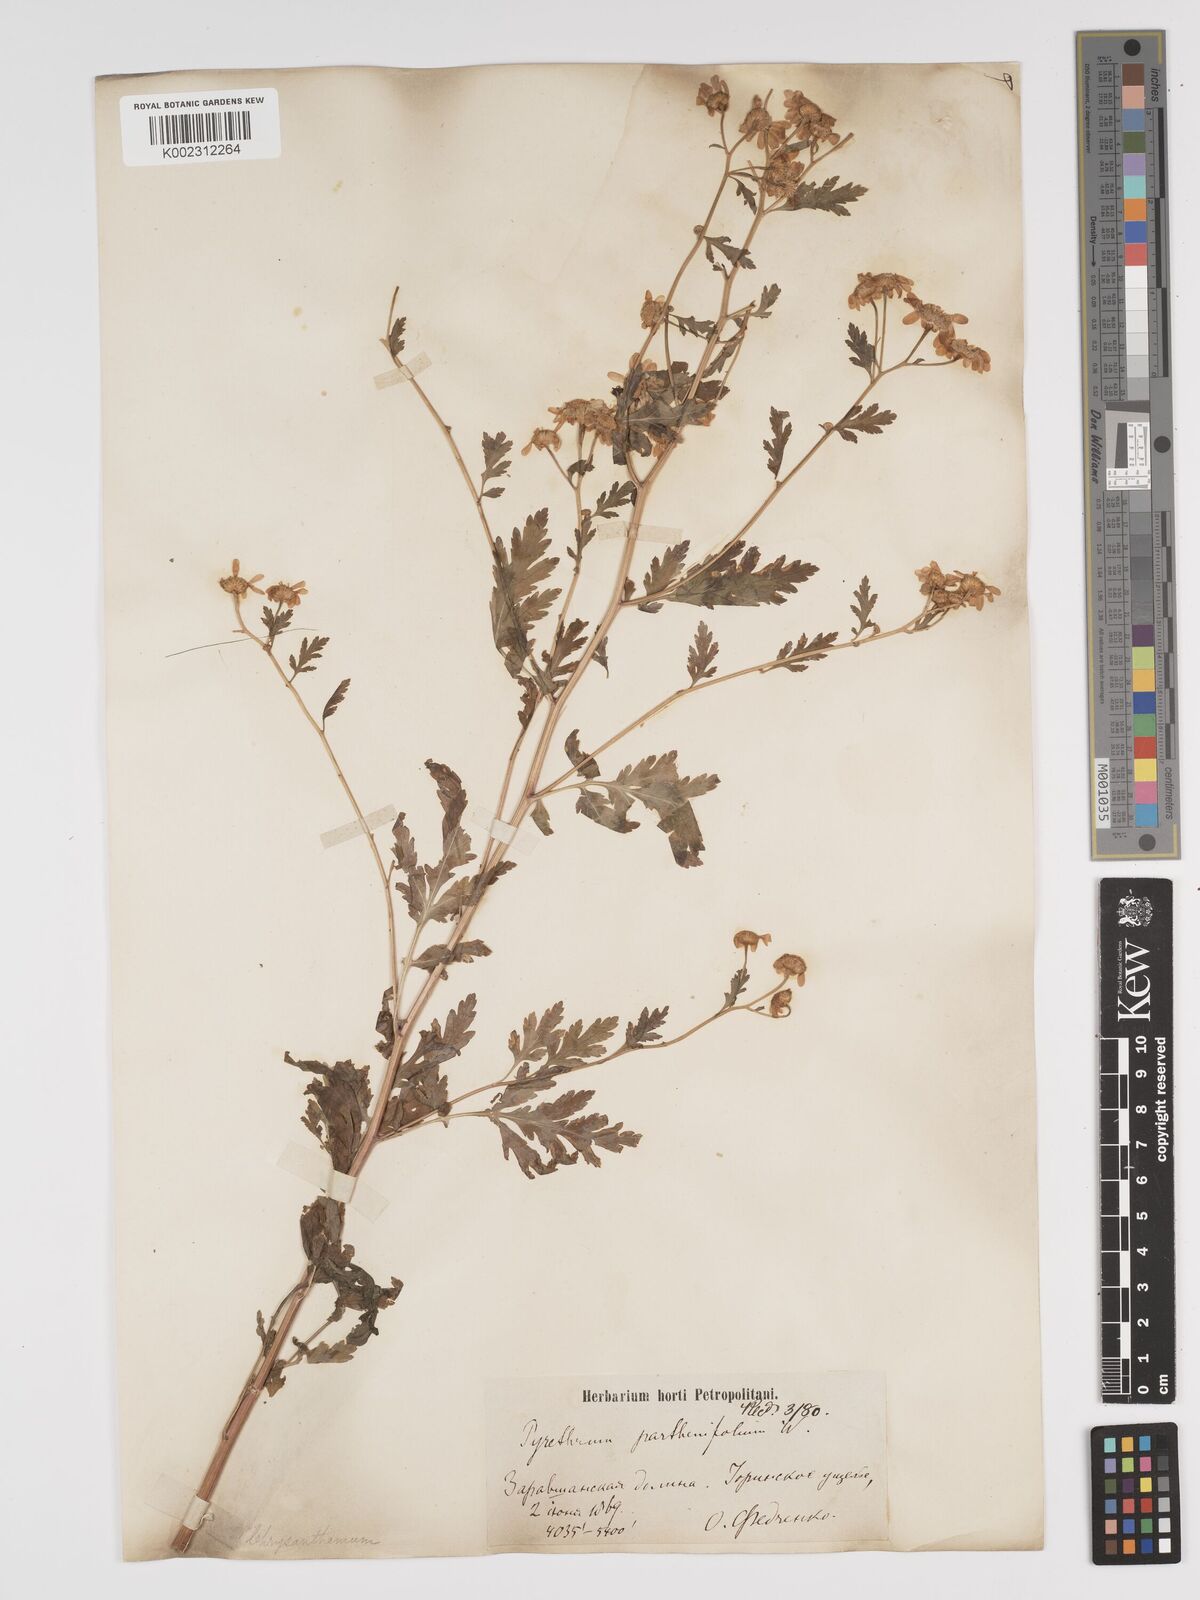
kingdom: Plantae
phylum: Tracheophyta
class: Magnoliopsida
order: Asterales
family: Asteraceae
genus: Tanacetum
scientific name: Tanacetum partheniifolium
